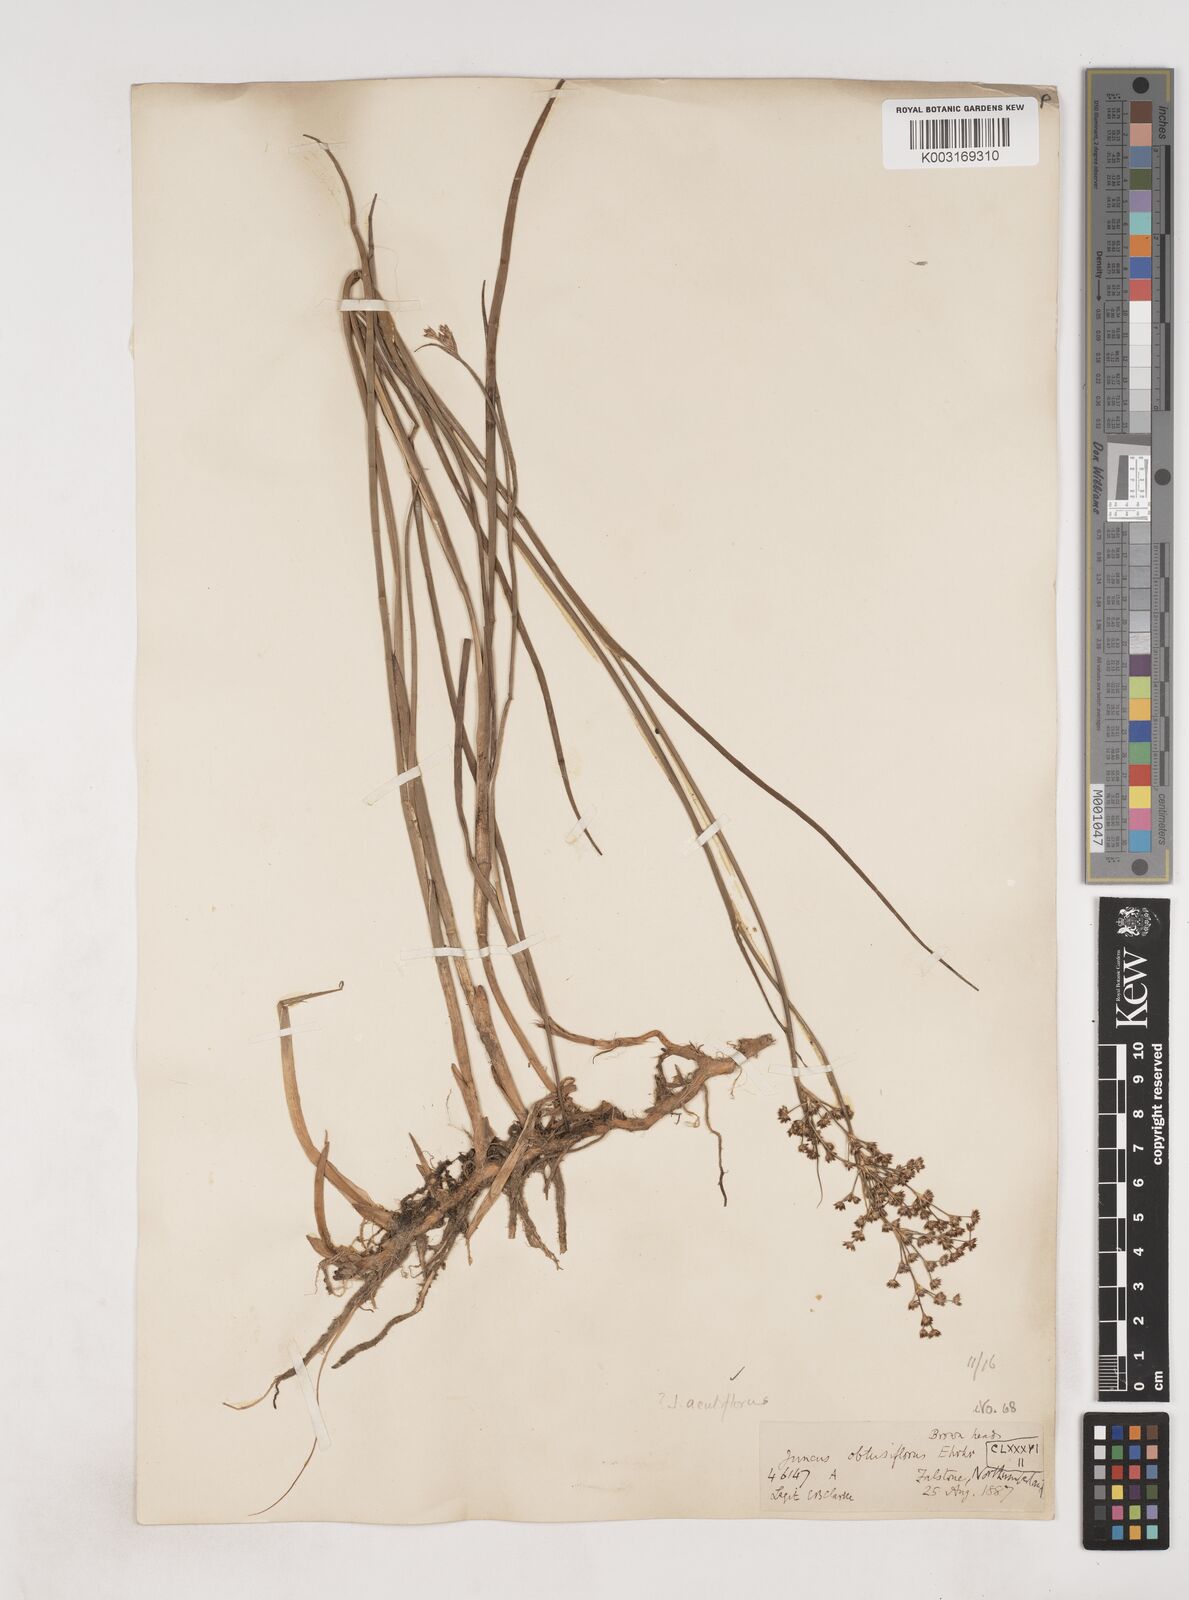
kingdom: Plantae
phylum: Tracheophyta
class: Liliopsida
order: Poales
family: Juncaceae
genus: Juncus
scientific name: Juncus acutiflorus
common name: Sharp-flowered rush
